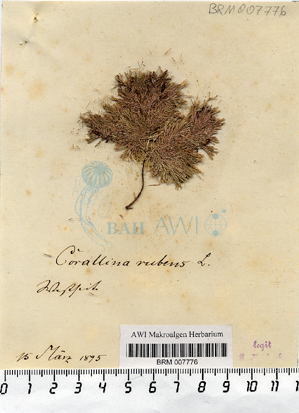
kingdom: Plantae
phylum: Rhodophyta
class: Florideophyceae
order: Corallinales
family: Corallinaceae
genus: Jania
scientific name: Jania rubens
